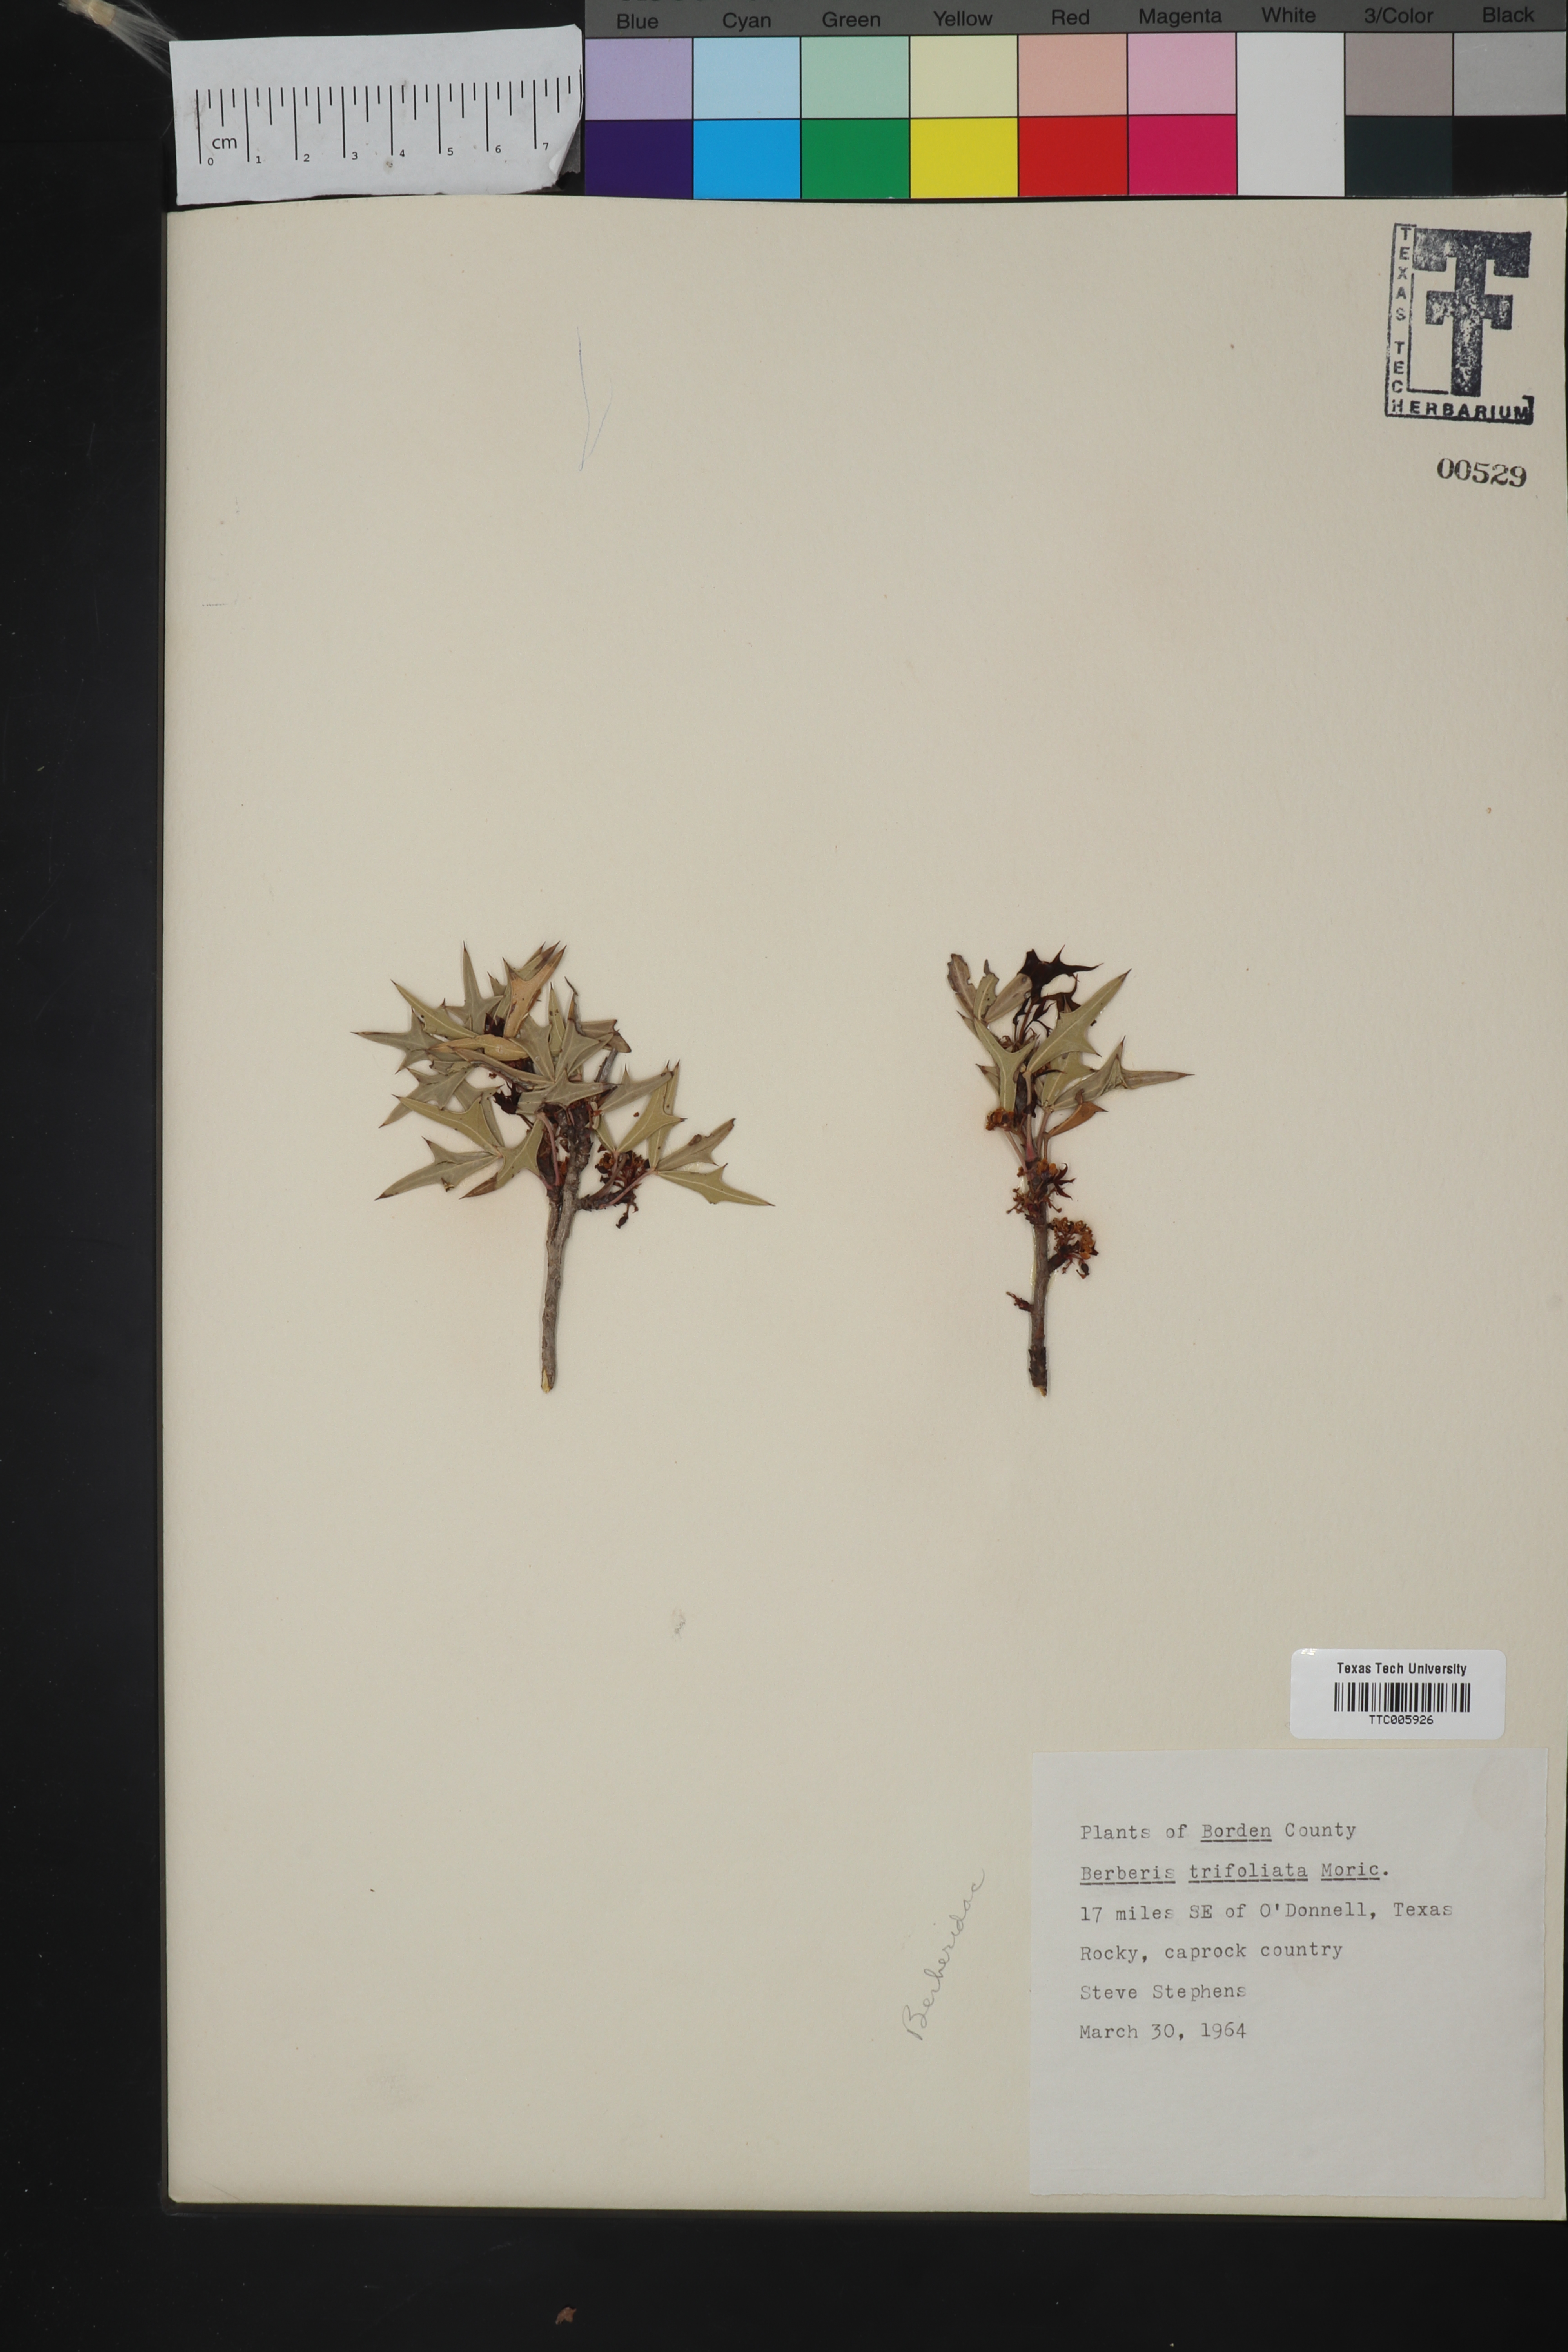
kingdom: Plantae
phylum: Tracheophyta
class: Magnoliopsida
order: Ranunculales
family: Berberidaceae
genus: Alloberberis
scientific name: Alloberberis trifoliolata
